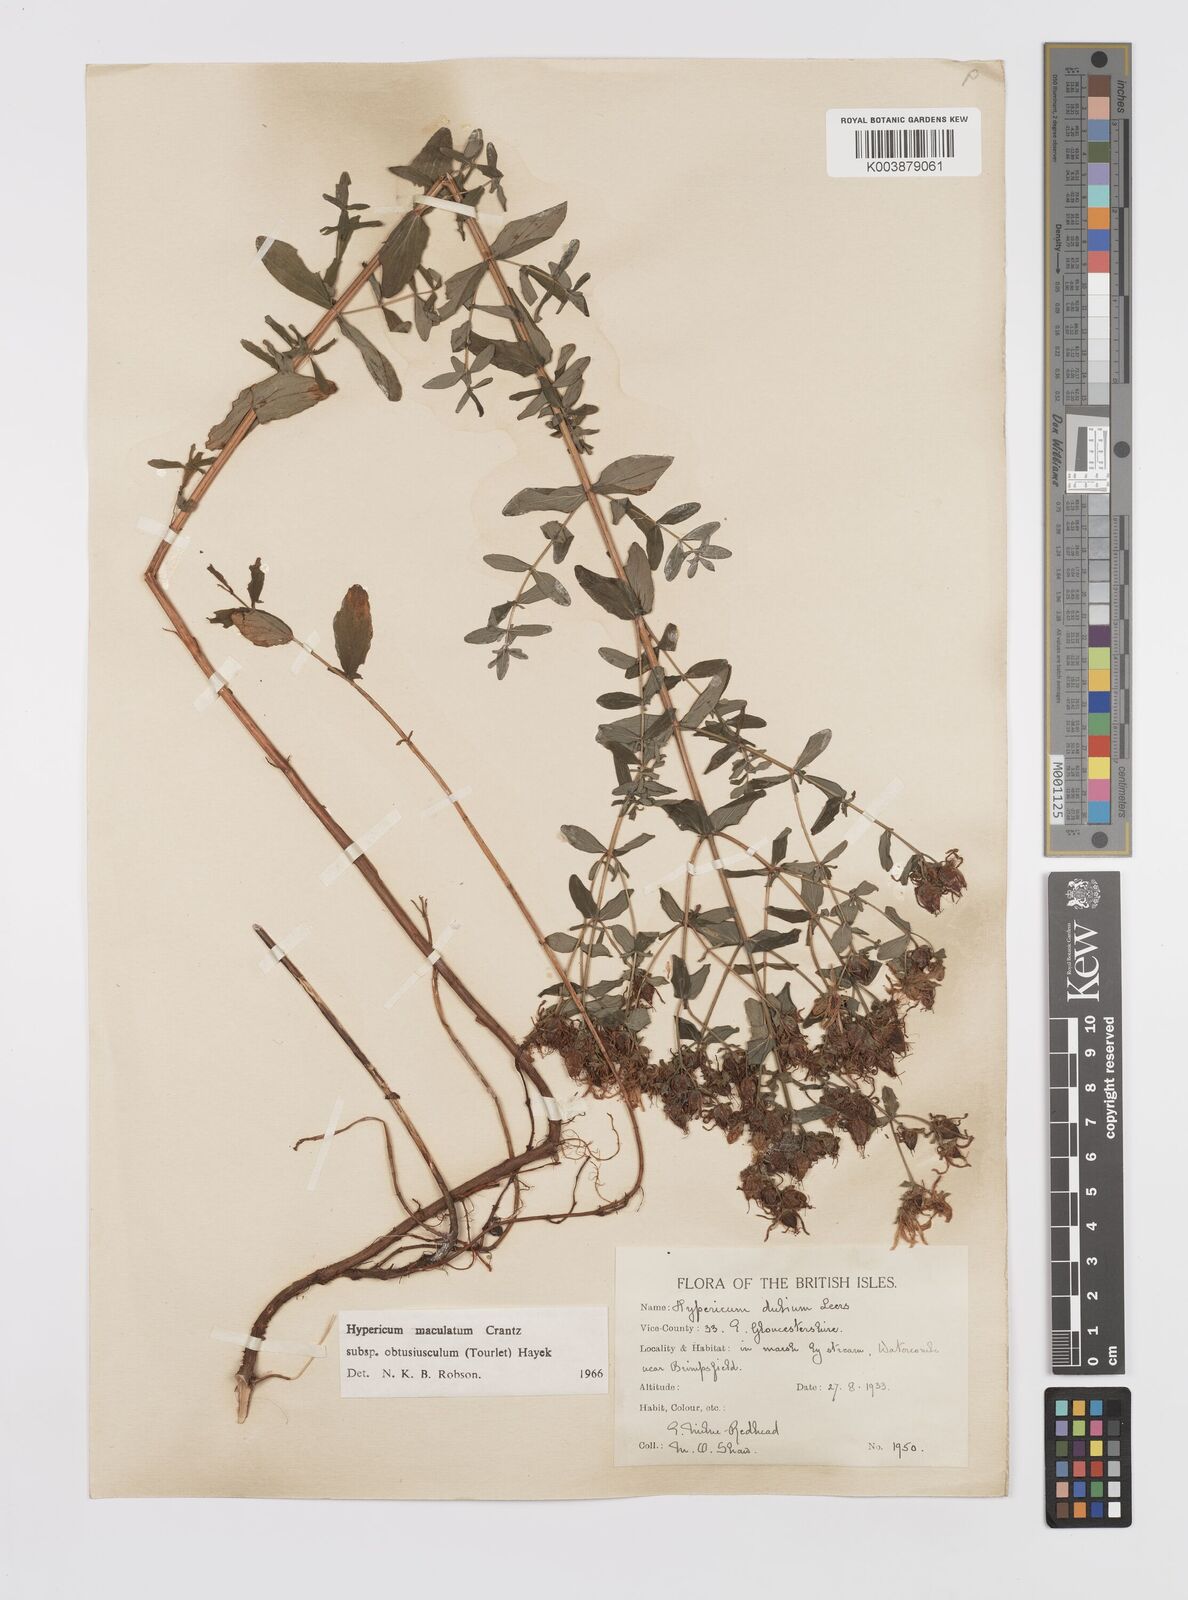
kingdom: Plantae
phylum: Tracheophyta
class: Magnoliopsida
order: Malpighiales
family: Hypericaceae
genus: Hypericum
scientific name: Hypericum dubium
